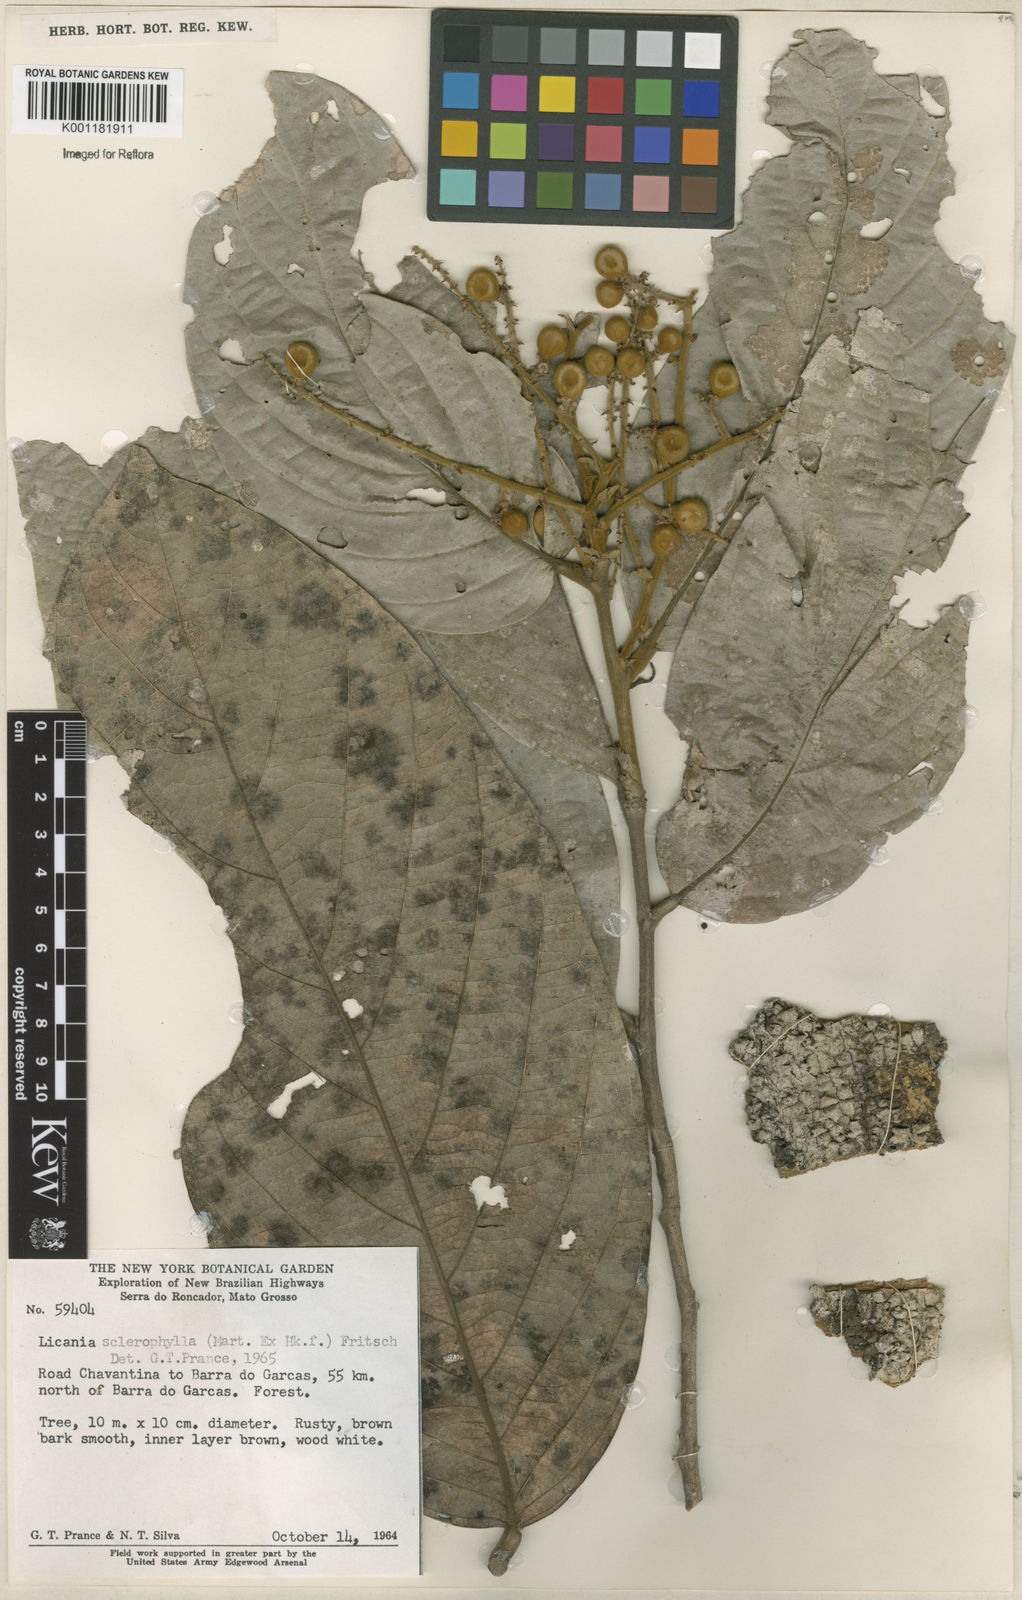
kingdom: Plantae
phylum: Tracheophyta
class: Magnoliopsida
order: Malpighiales
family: Chrysobalanaceae
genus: Leptobalanus
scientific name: Leptobalanus sclerophyllus
